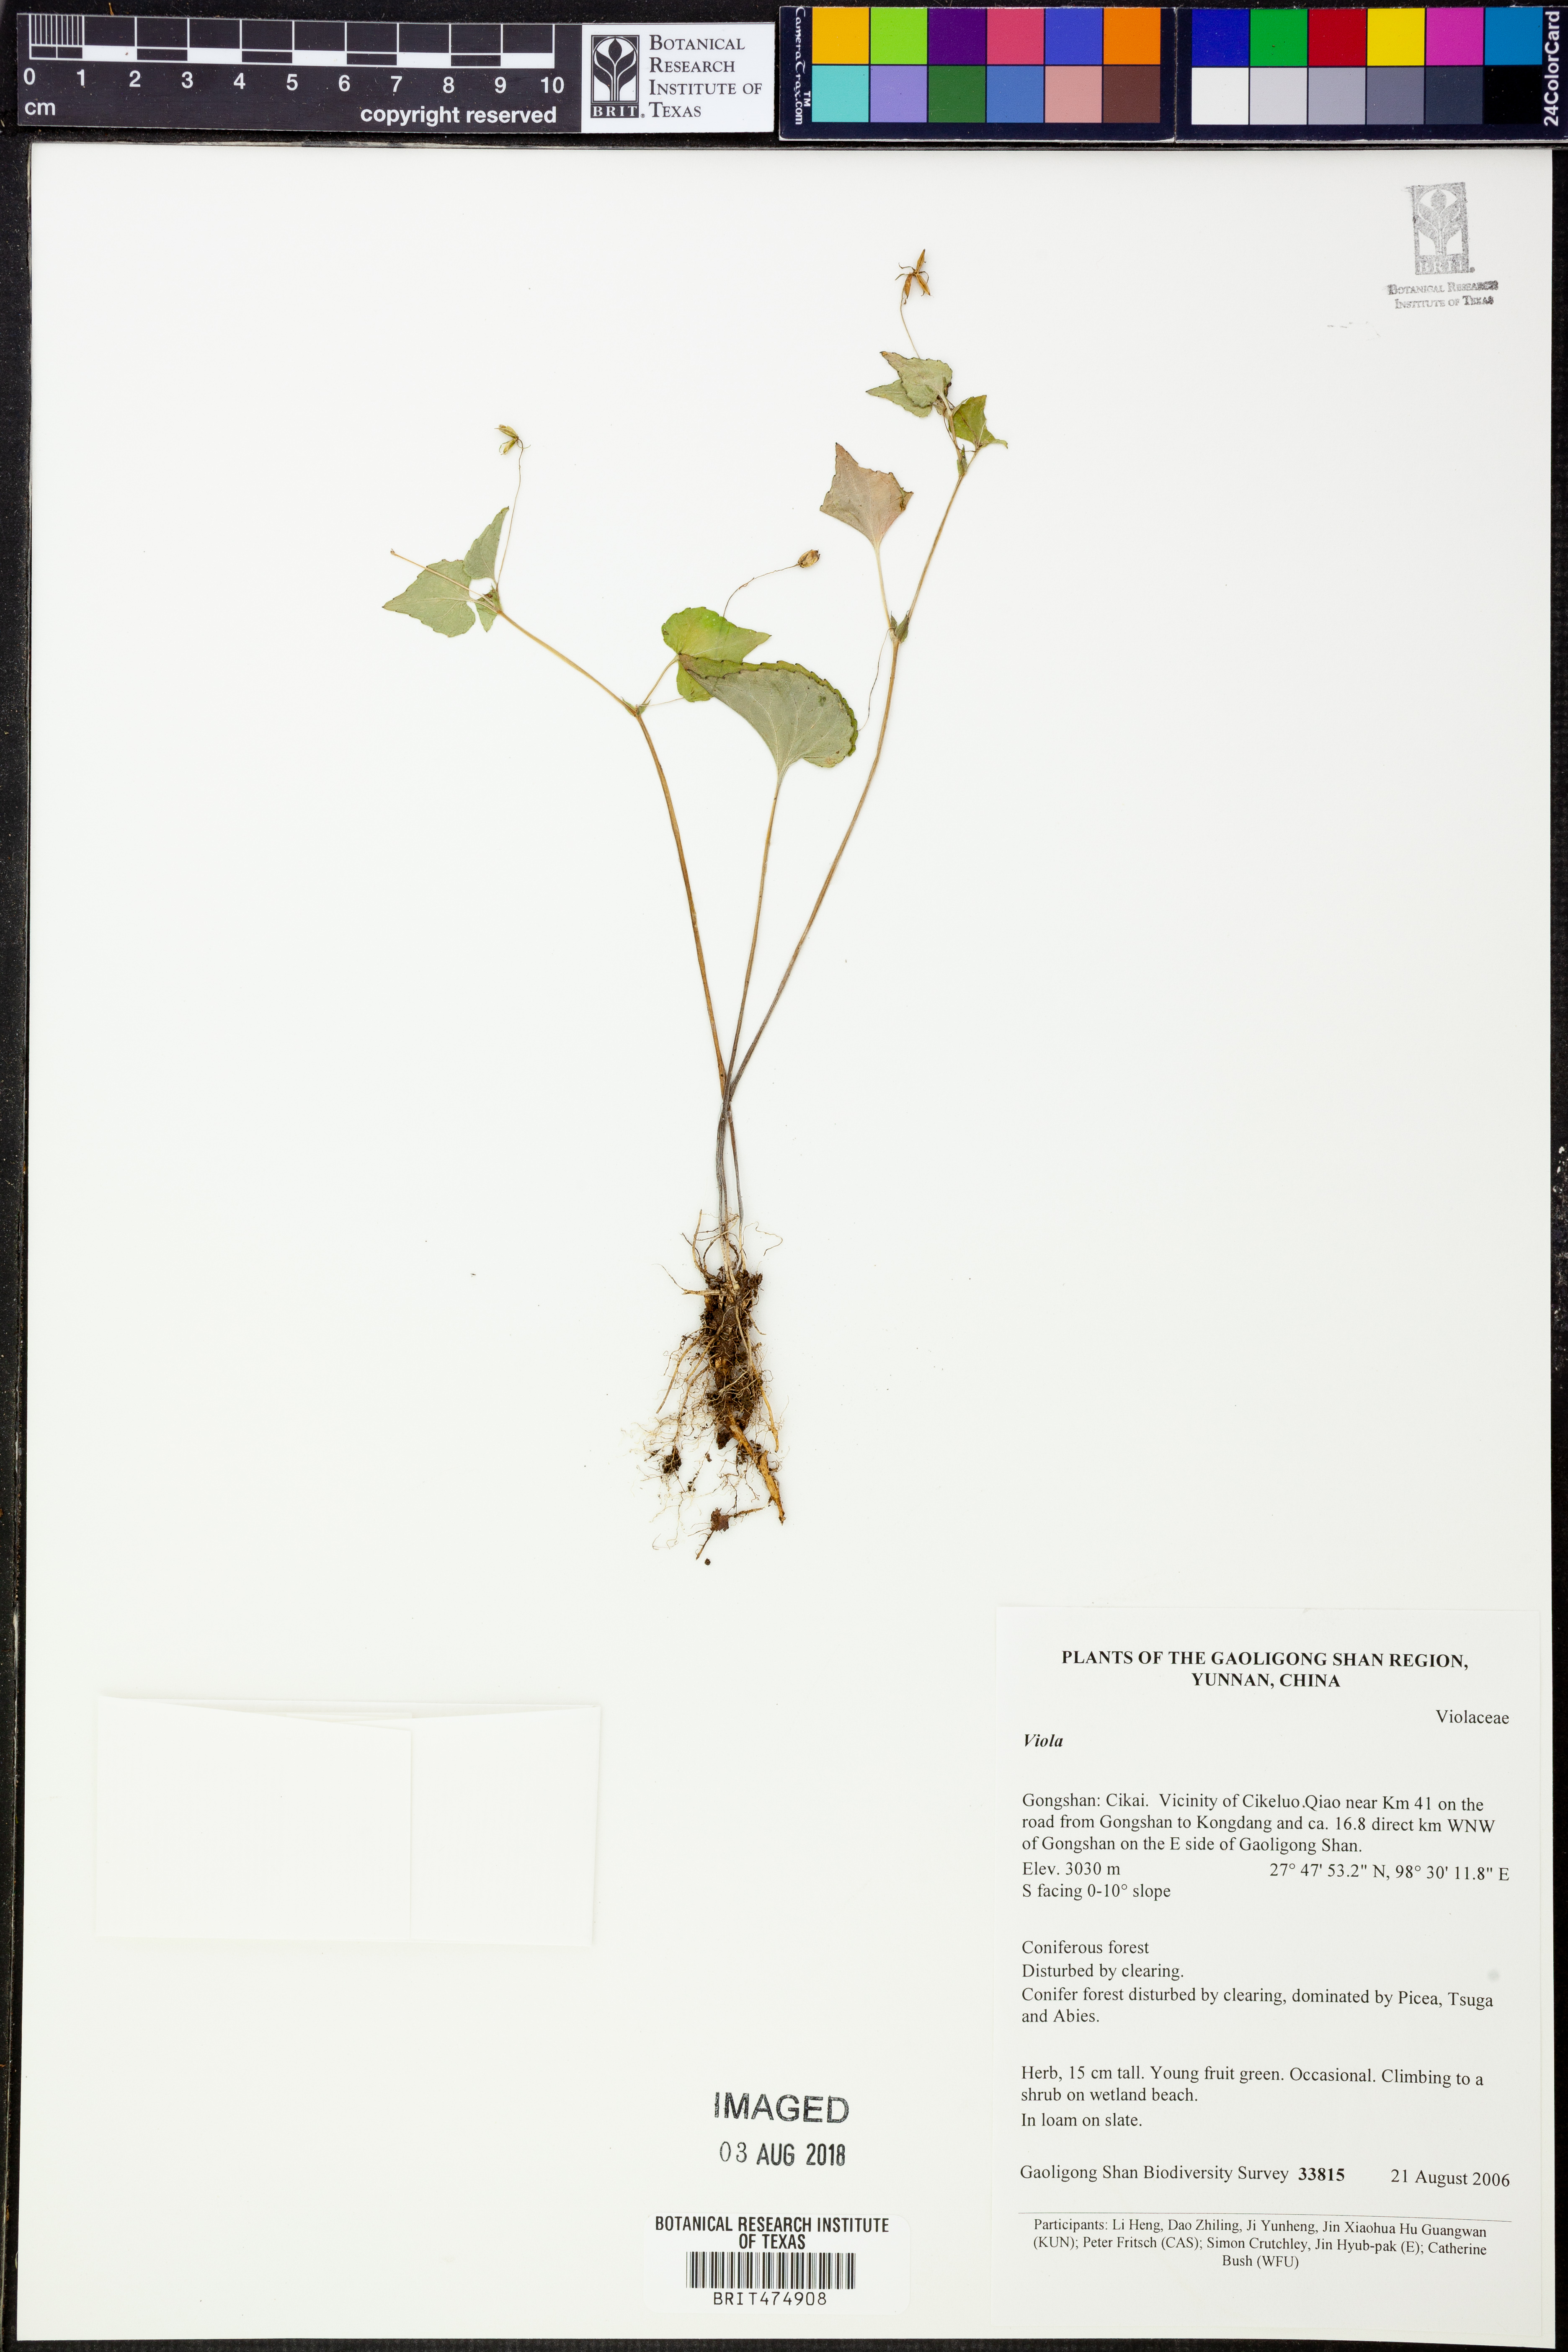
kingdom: Plantae
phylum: Tracheophyta
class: Magnoliopsida
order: Malpighiales
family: Violaceae
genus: Viola
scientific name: Viola
